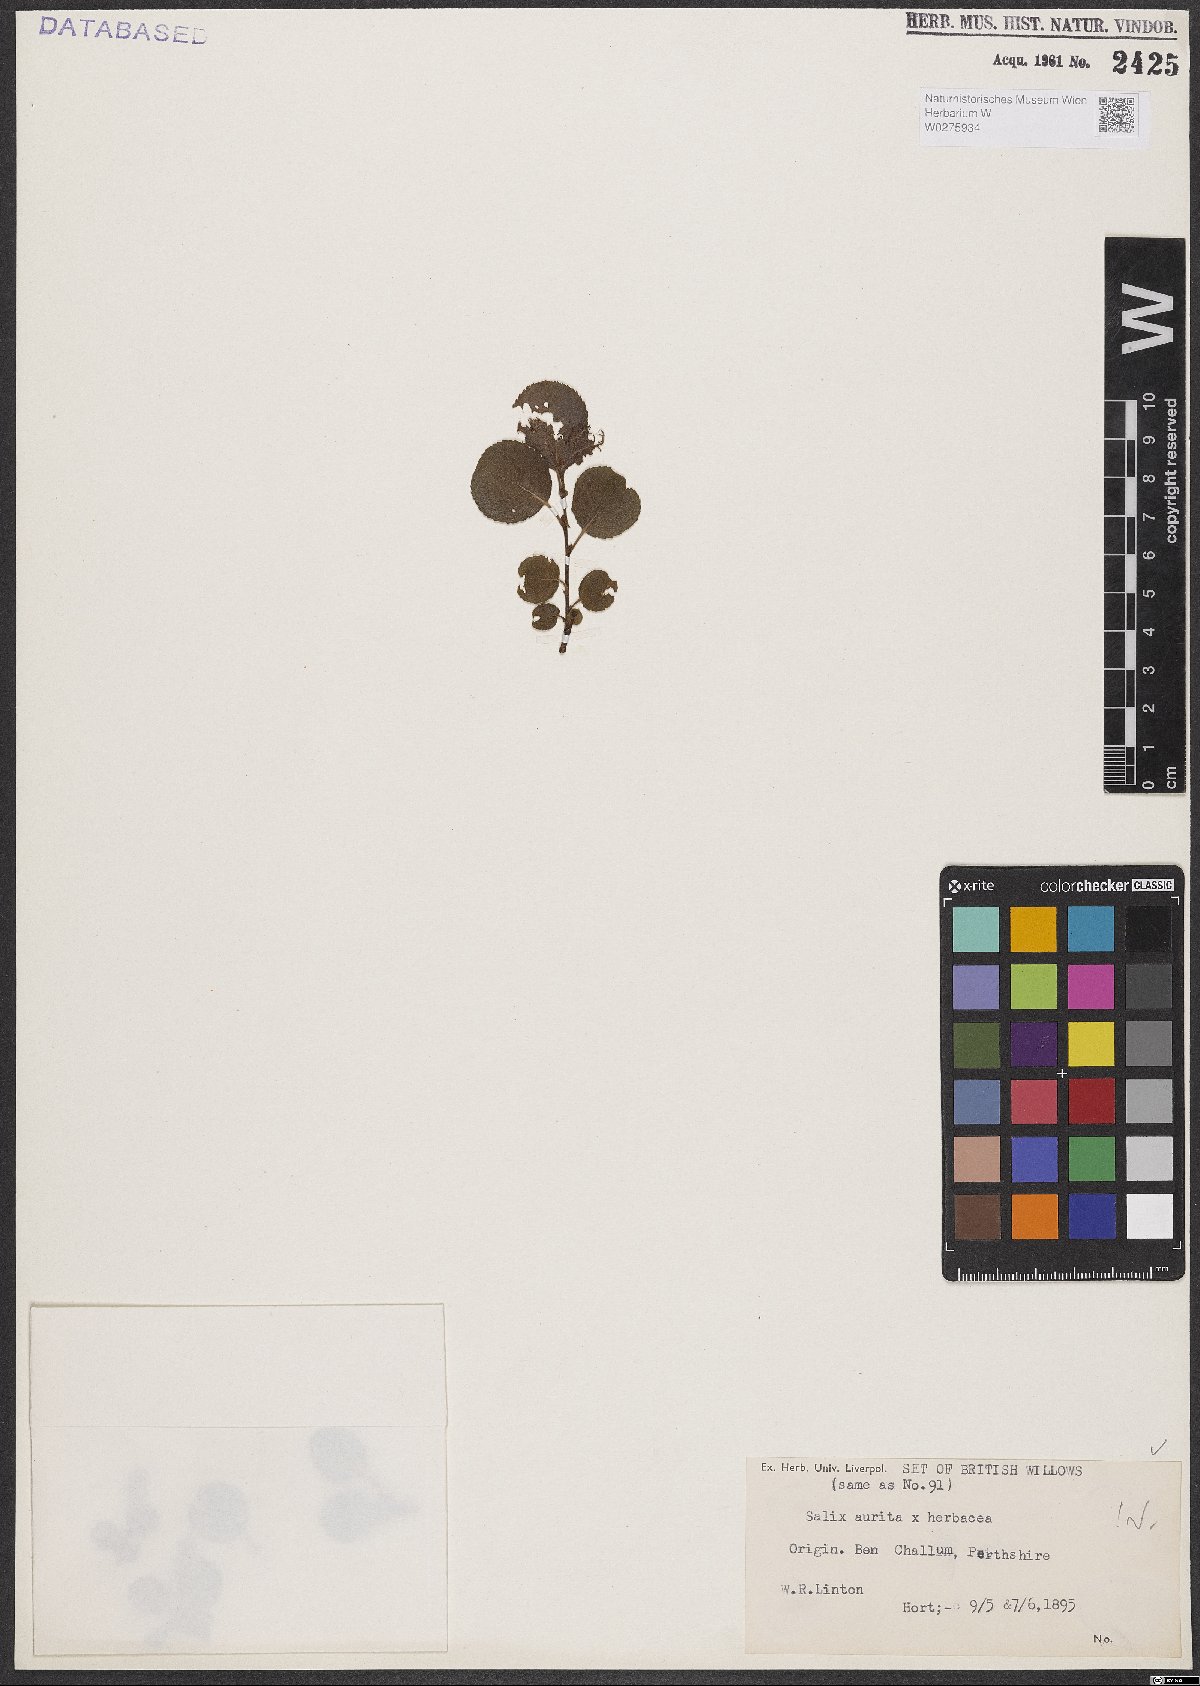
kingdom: Plantae
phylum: Tracheophyta
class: Magnoliopsida
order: Malpighiales
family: Salicaceae
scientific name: Salicaceae
